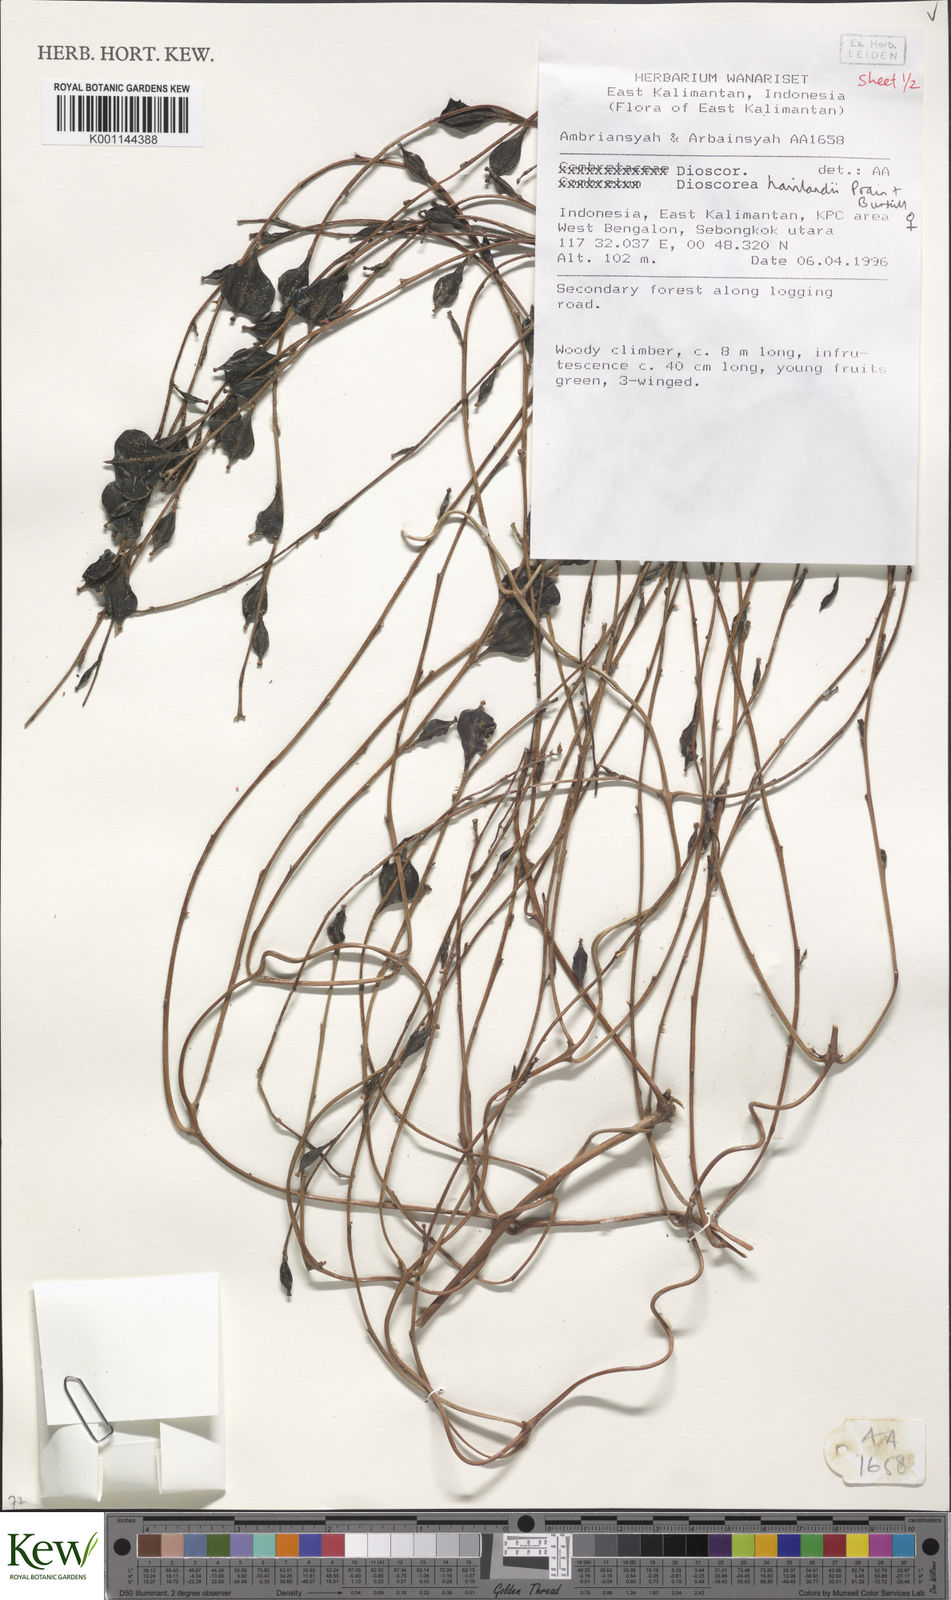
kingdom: Plantae
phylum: Tracheophyta
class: Liliopsida
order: Dioscoreales
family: Dioscoreaceae
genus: Dioscorea
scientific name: Dioscorea havilandii
